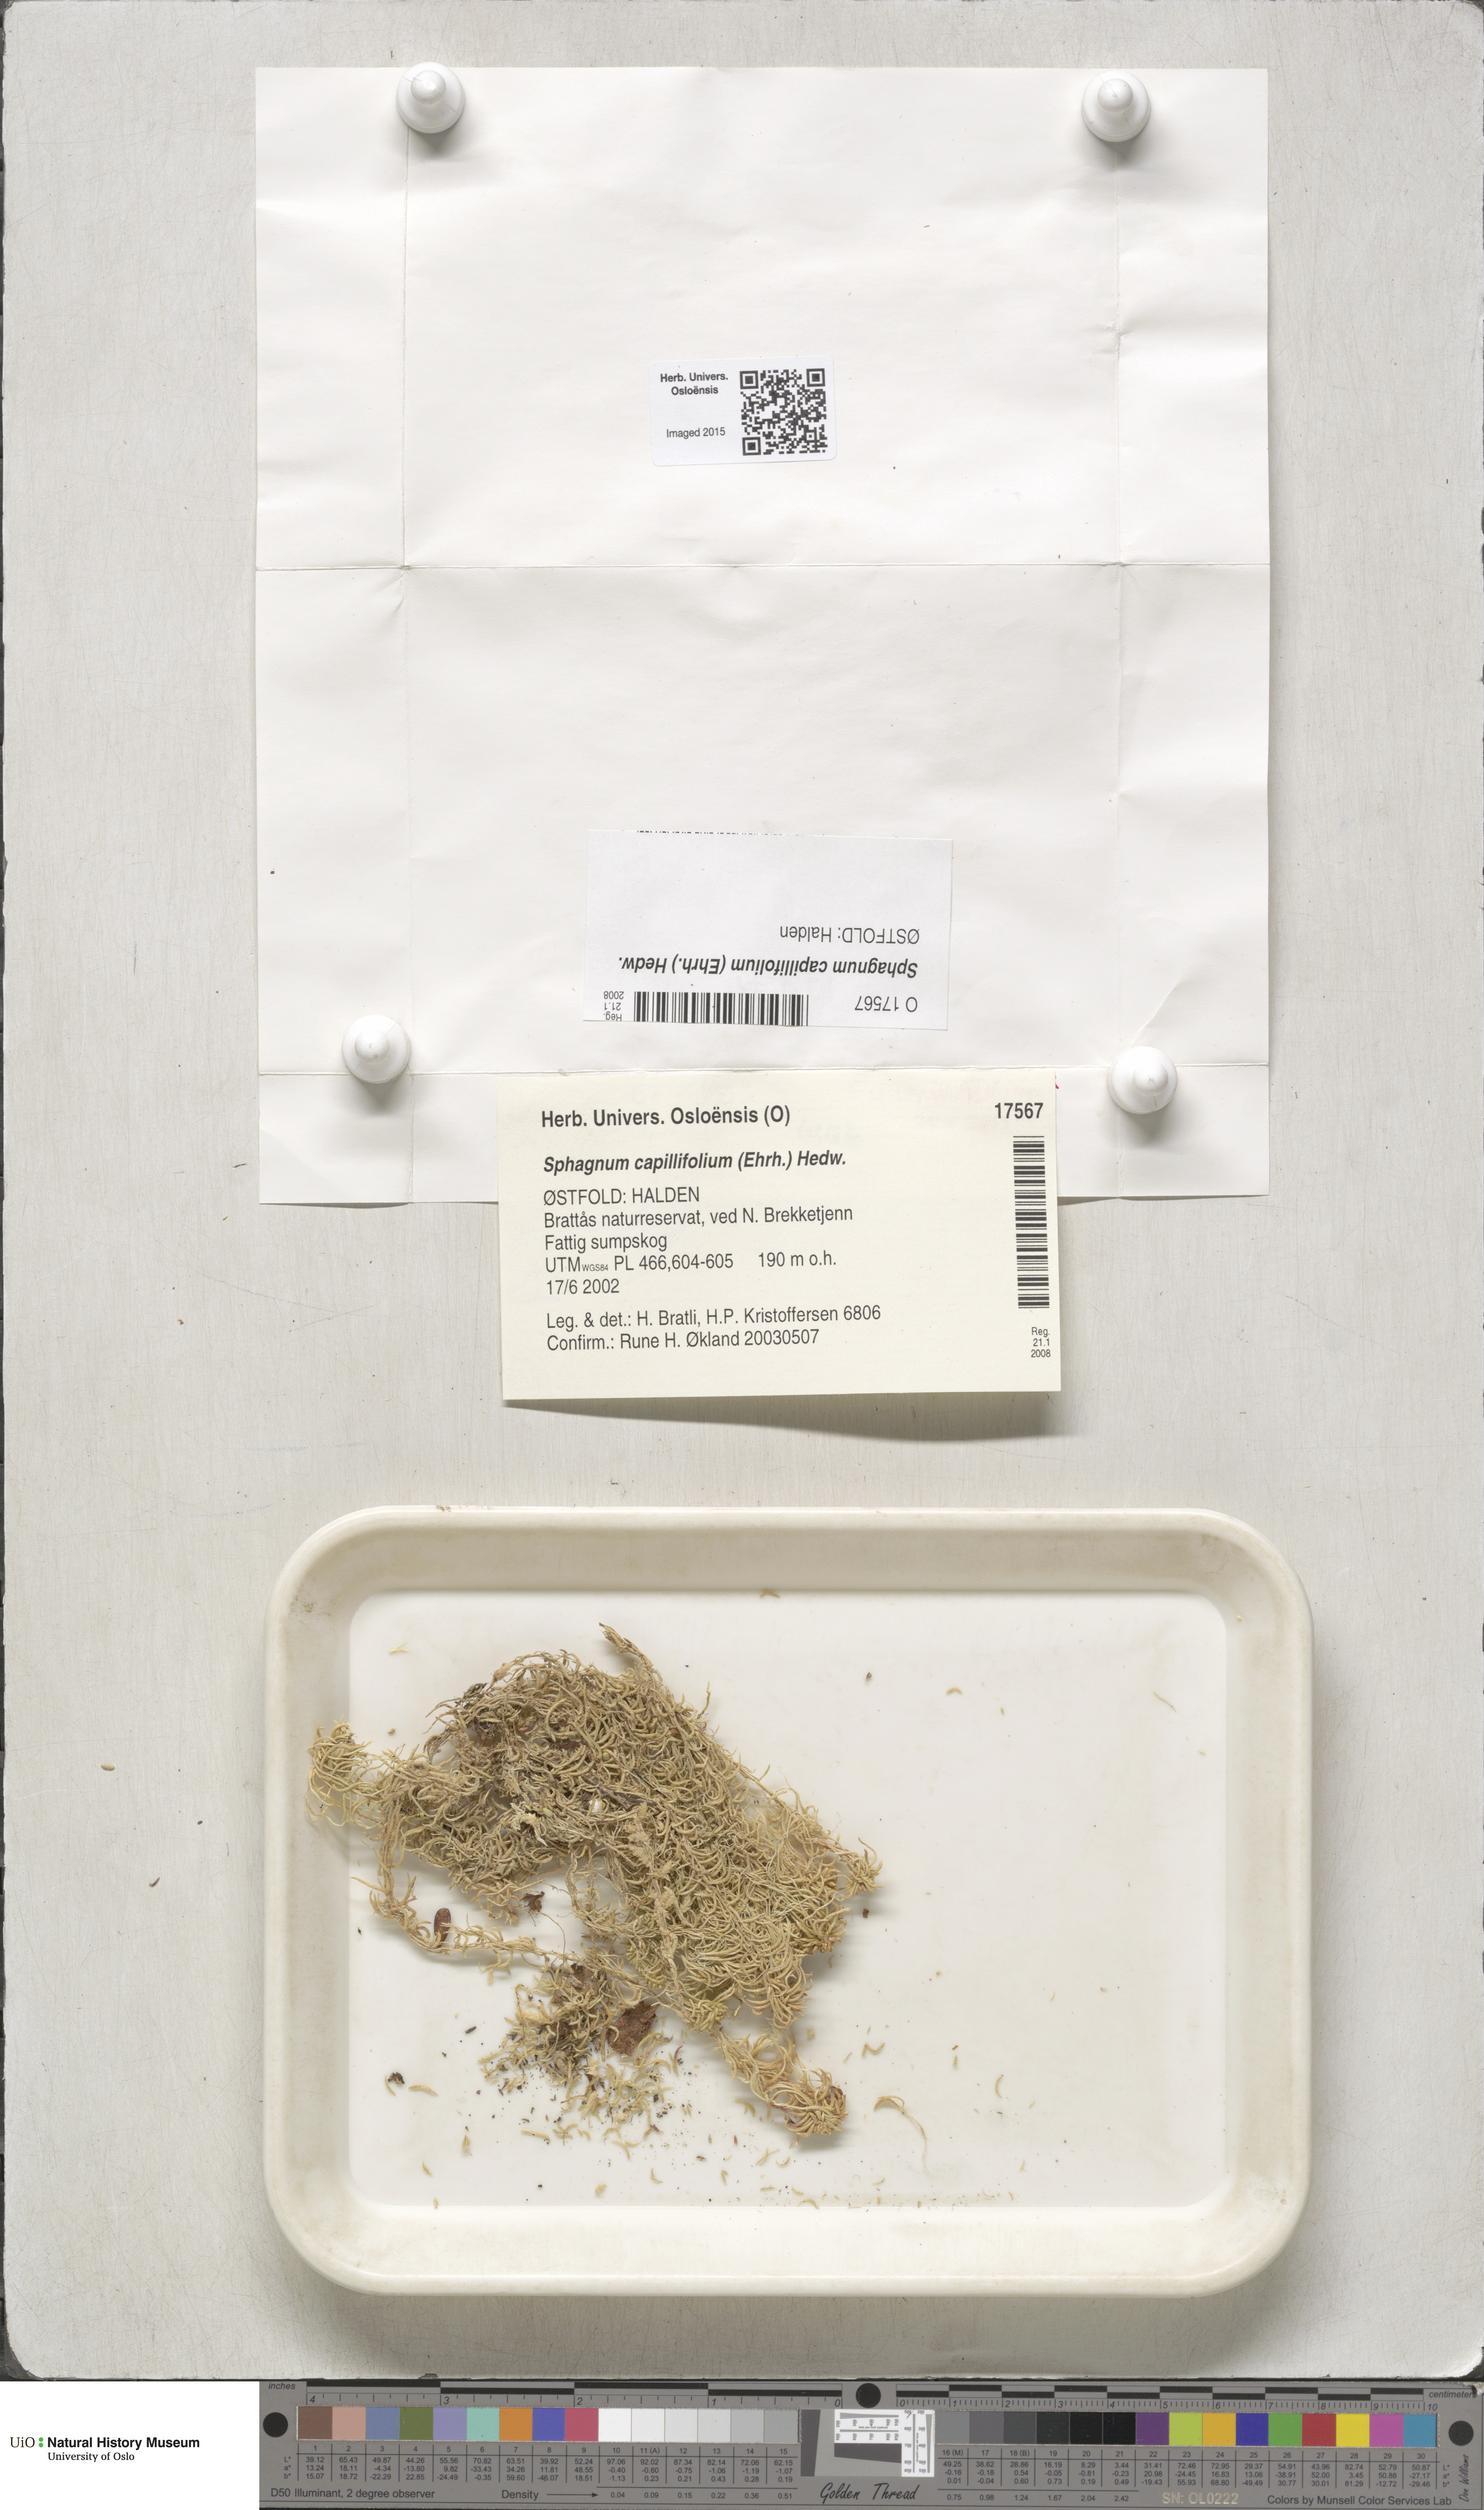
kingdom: Plantae
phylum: Bryophyta
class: Sphagnopsida
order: Sphagnales
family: Sphagnaceae
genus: Sphagnum
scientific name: Sphagnum capillifolium
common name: Small red peat moss
